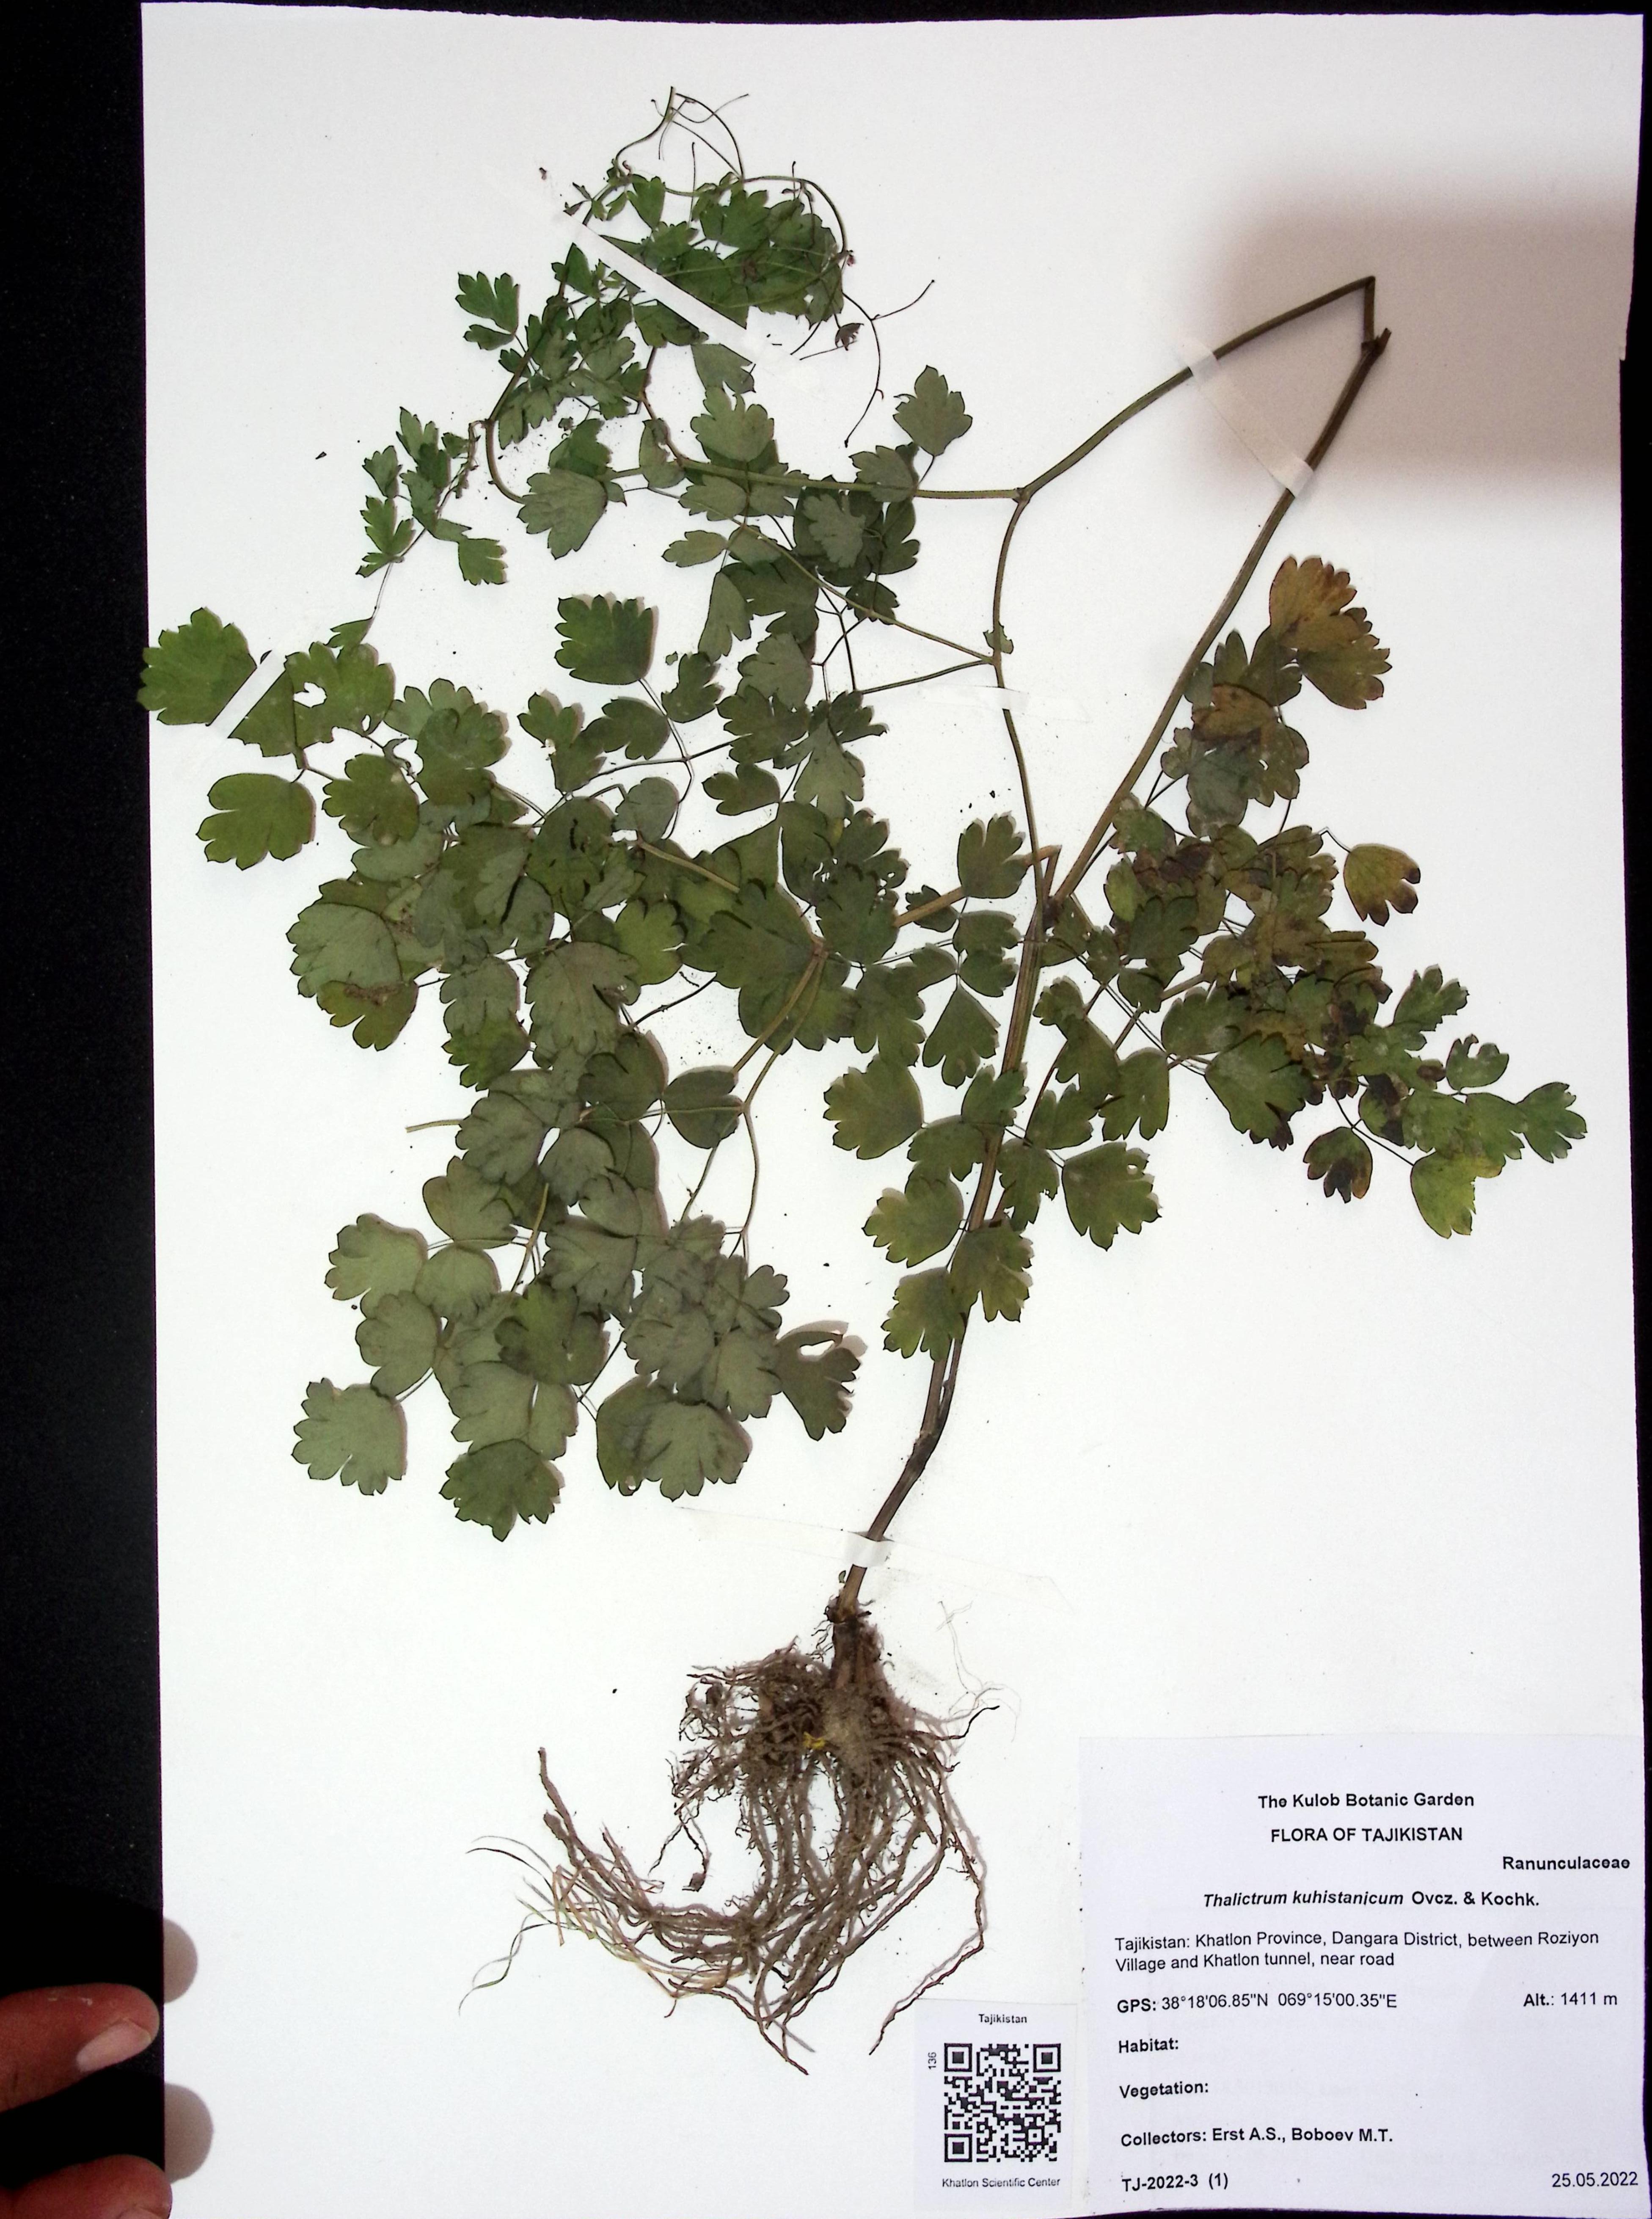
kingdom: Plantae
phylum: Tracheophyta
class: Magnoliopsida
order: Ranunculales
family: Ranunculaceae
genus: Thalictrum
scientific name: Thalictrum minus
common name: Lesser meadow-rue
